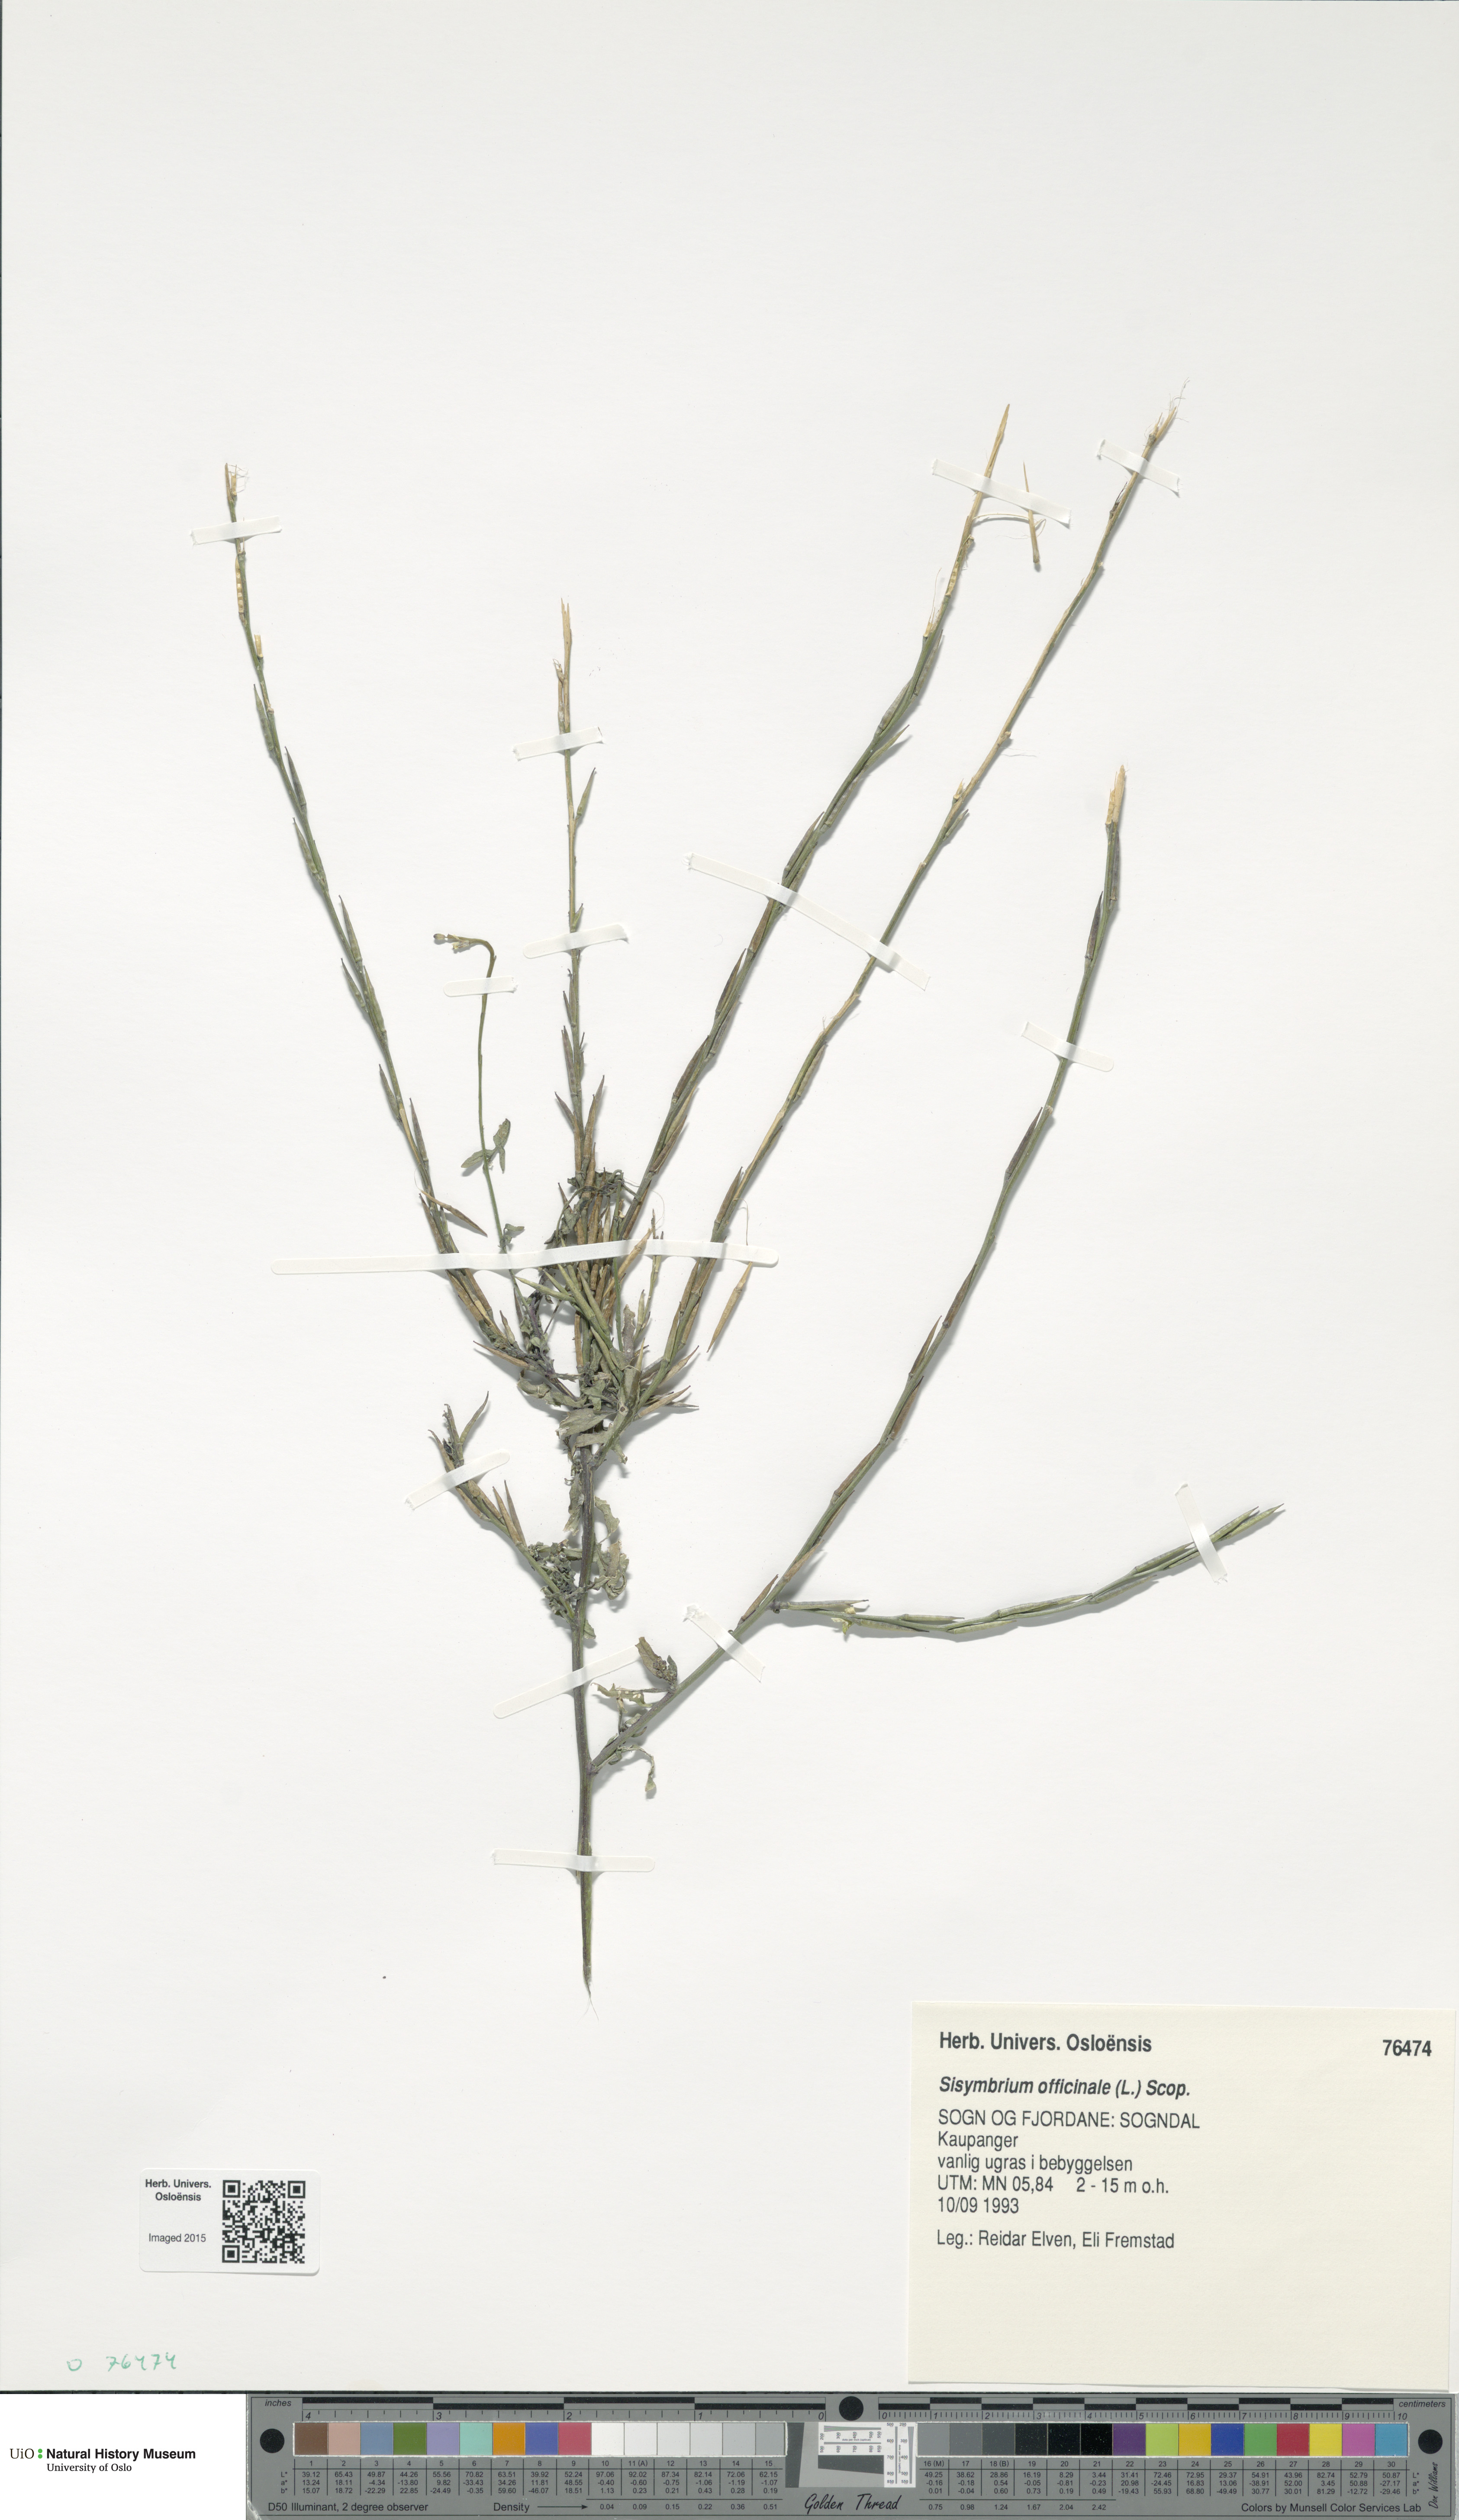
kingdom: Plantae
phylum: Tracheophyta
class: Magnoliopsida
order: Brassicales
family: Brassicaceae
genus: Sisymbrium
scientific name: Sisymbrium officinale
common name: Hedge mustard
